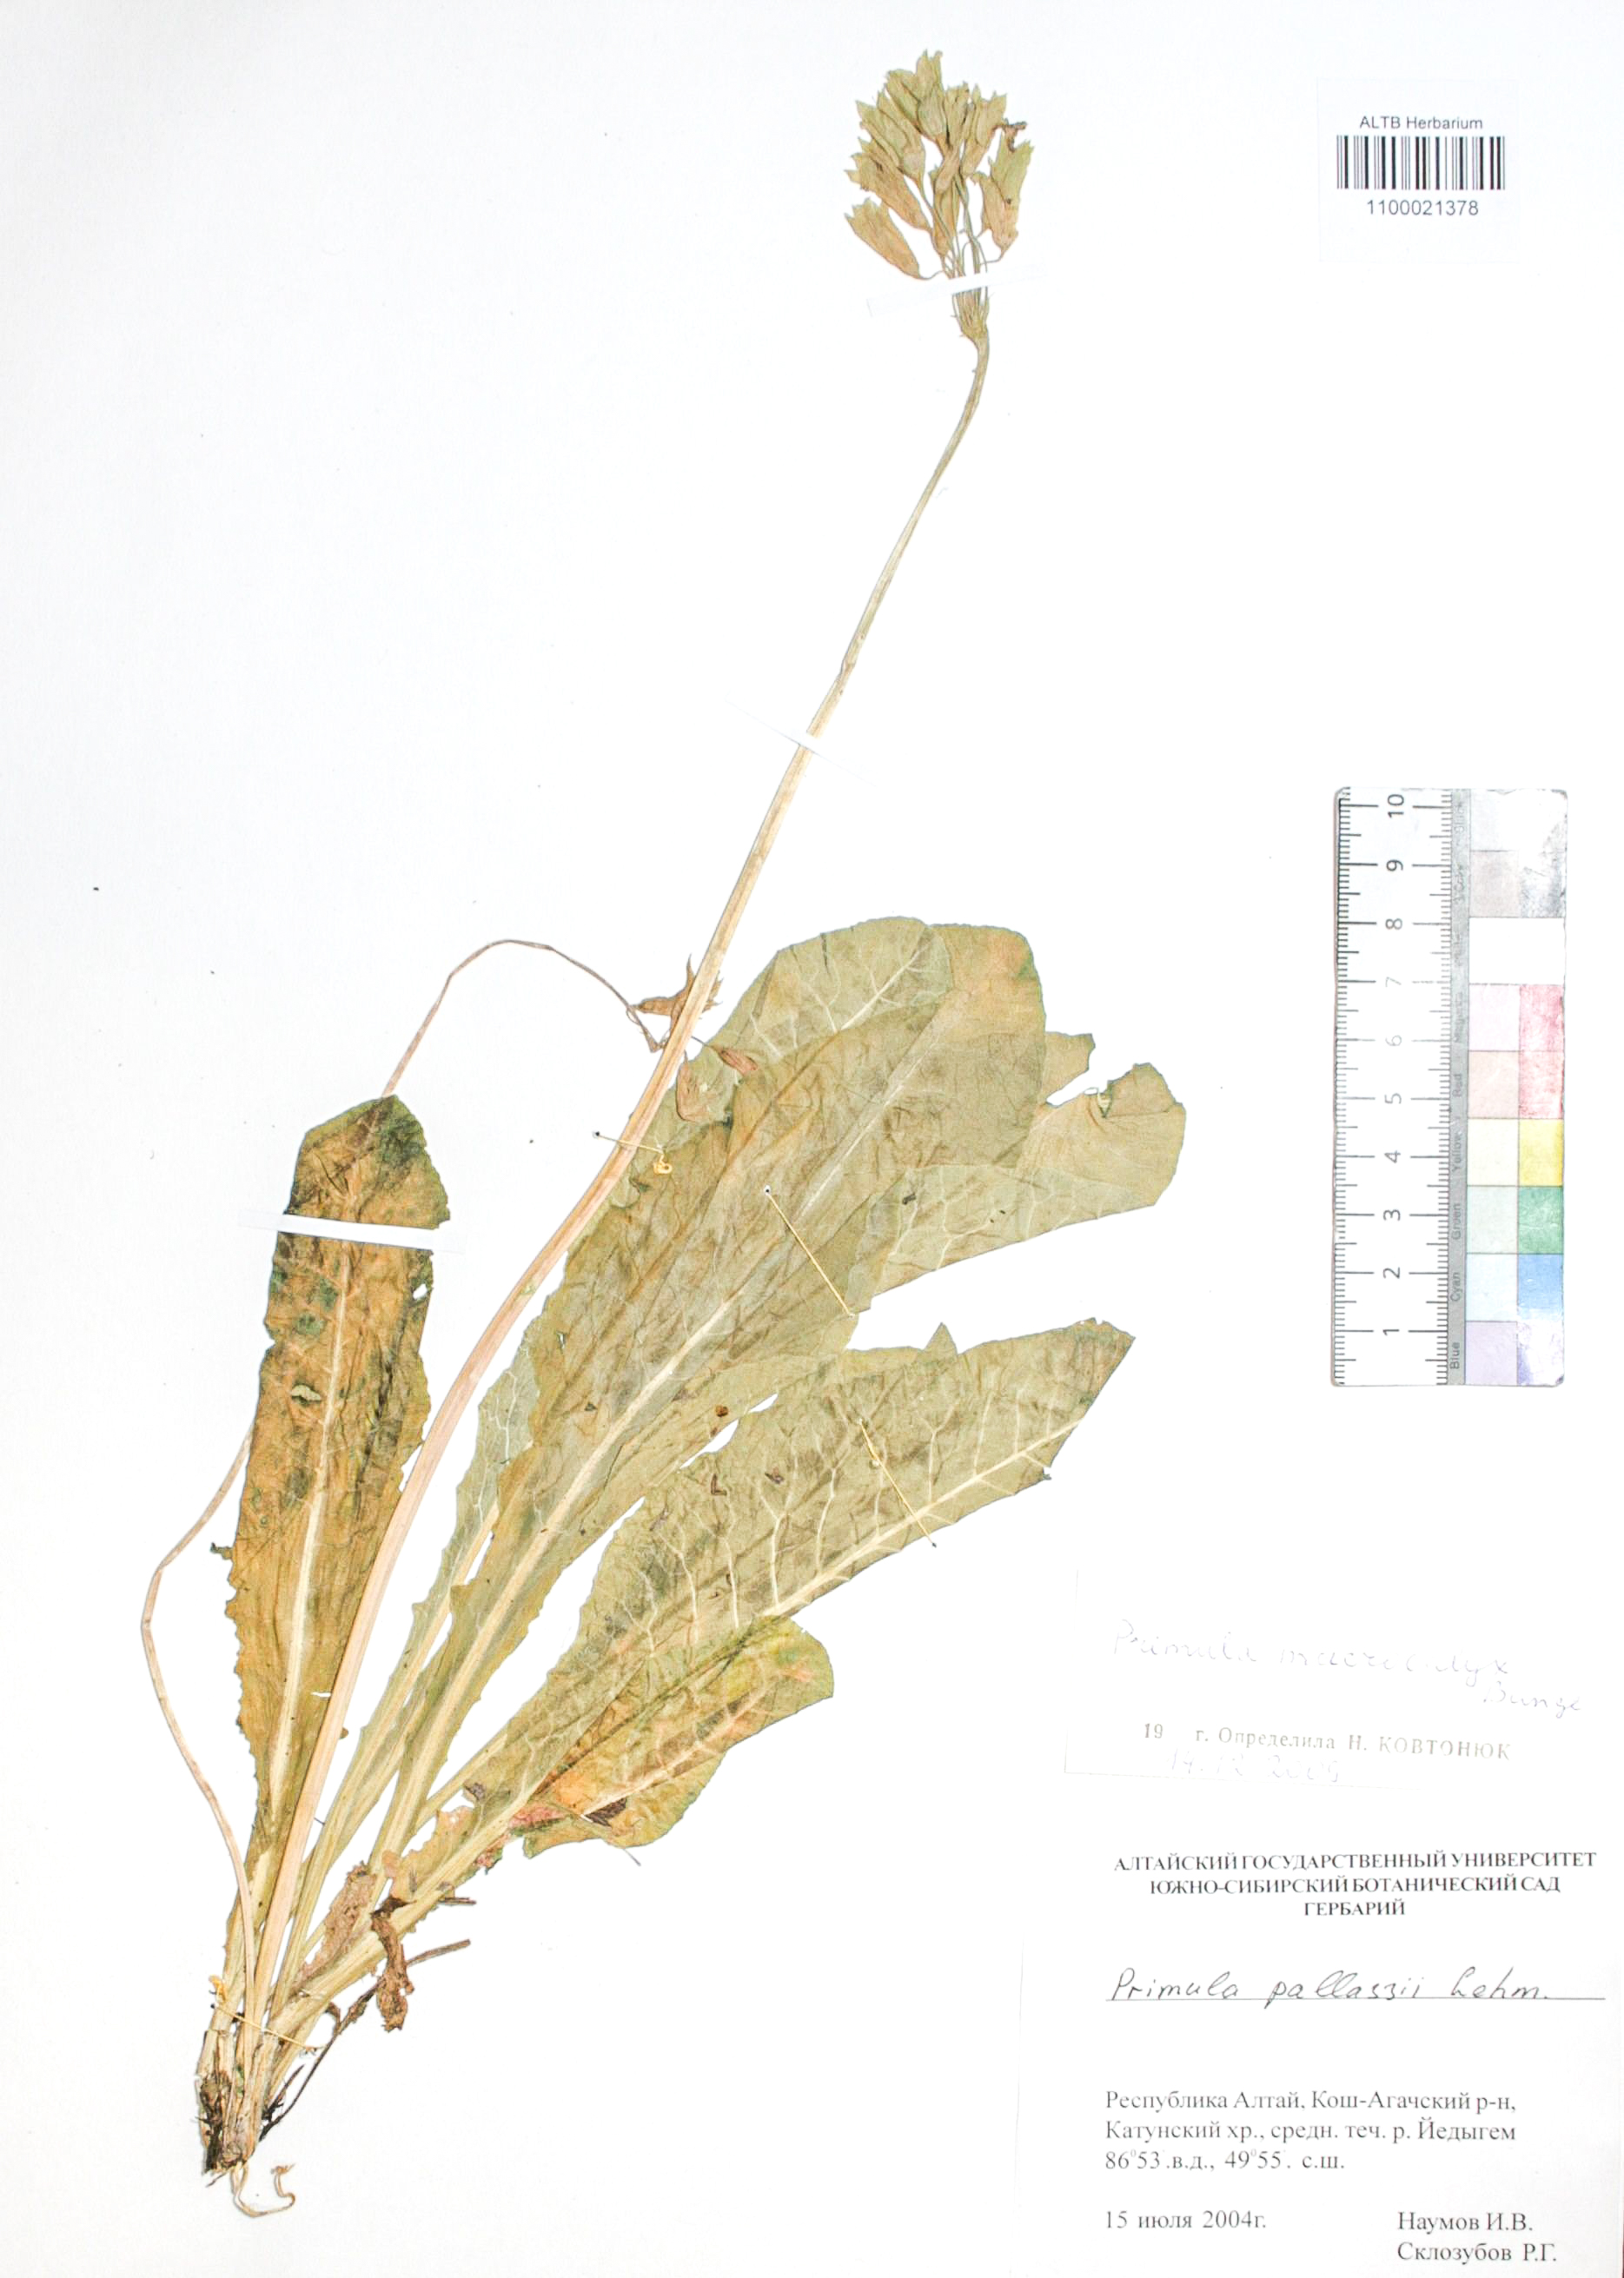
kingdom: Plantae
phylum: Tracheophyta
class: Magnoliopsida
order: Ericales
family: Primulaceae
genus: Primula
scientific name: Primula veris
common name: Cowslip
